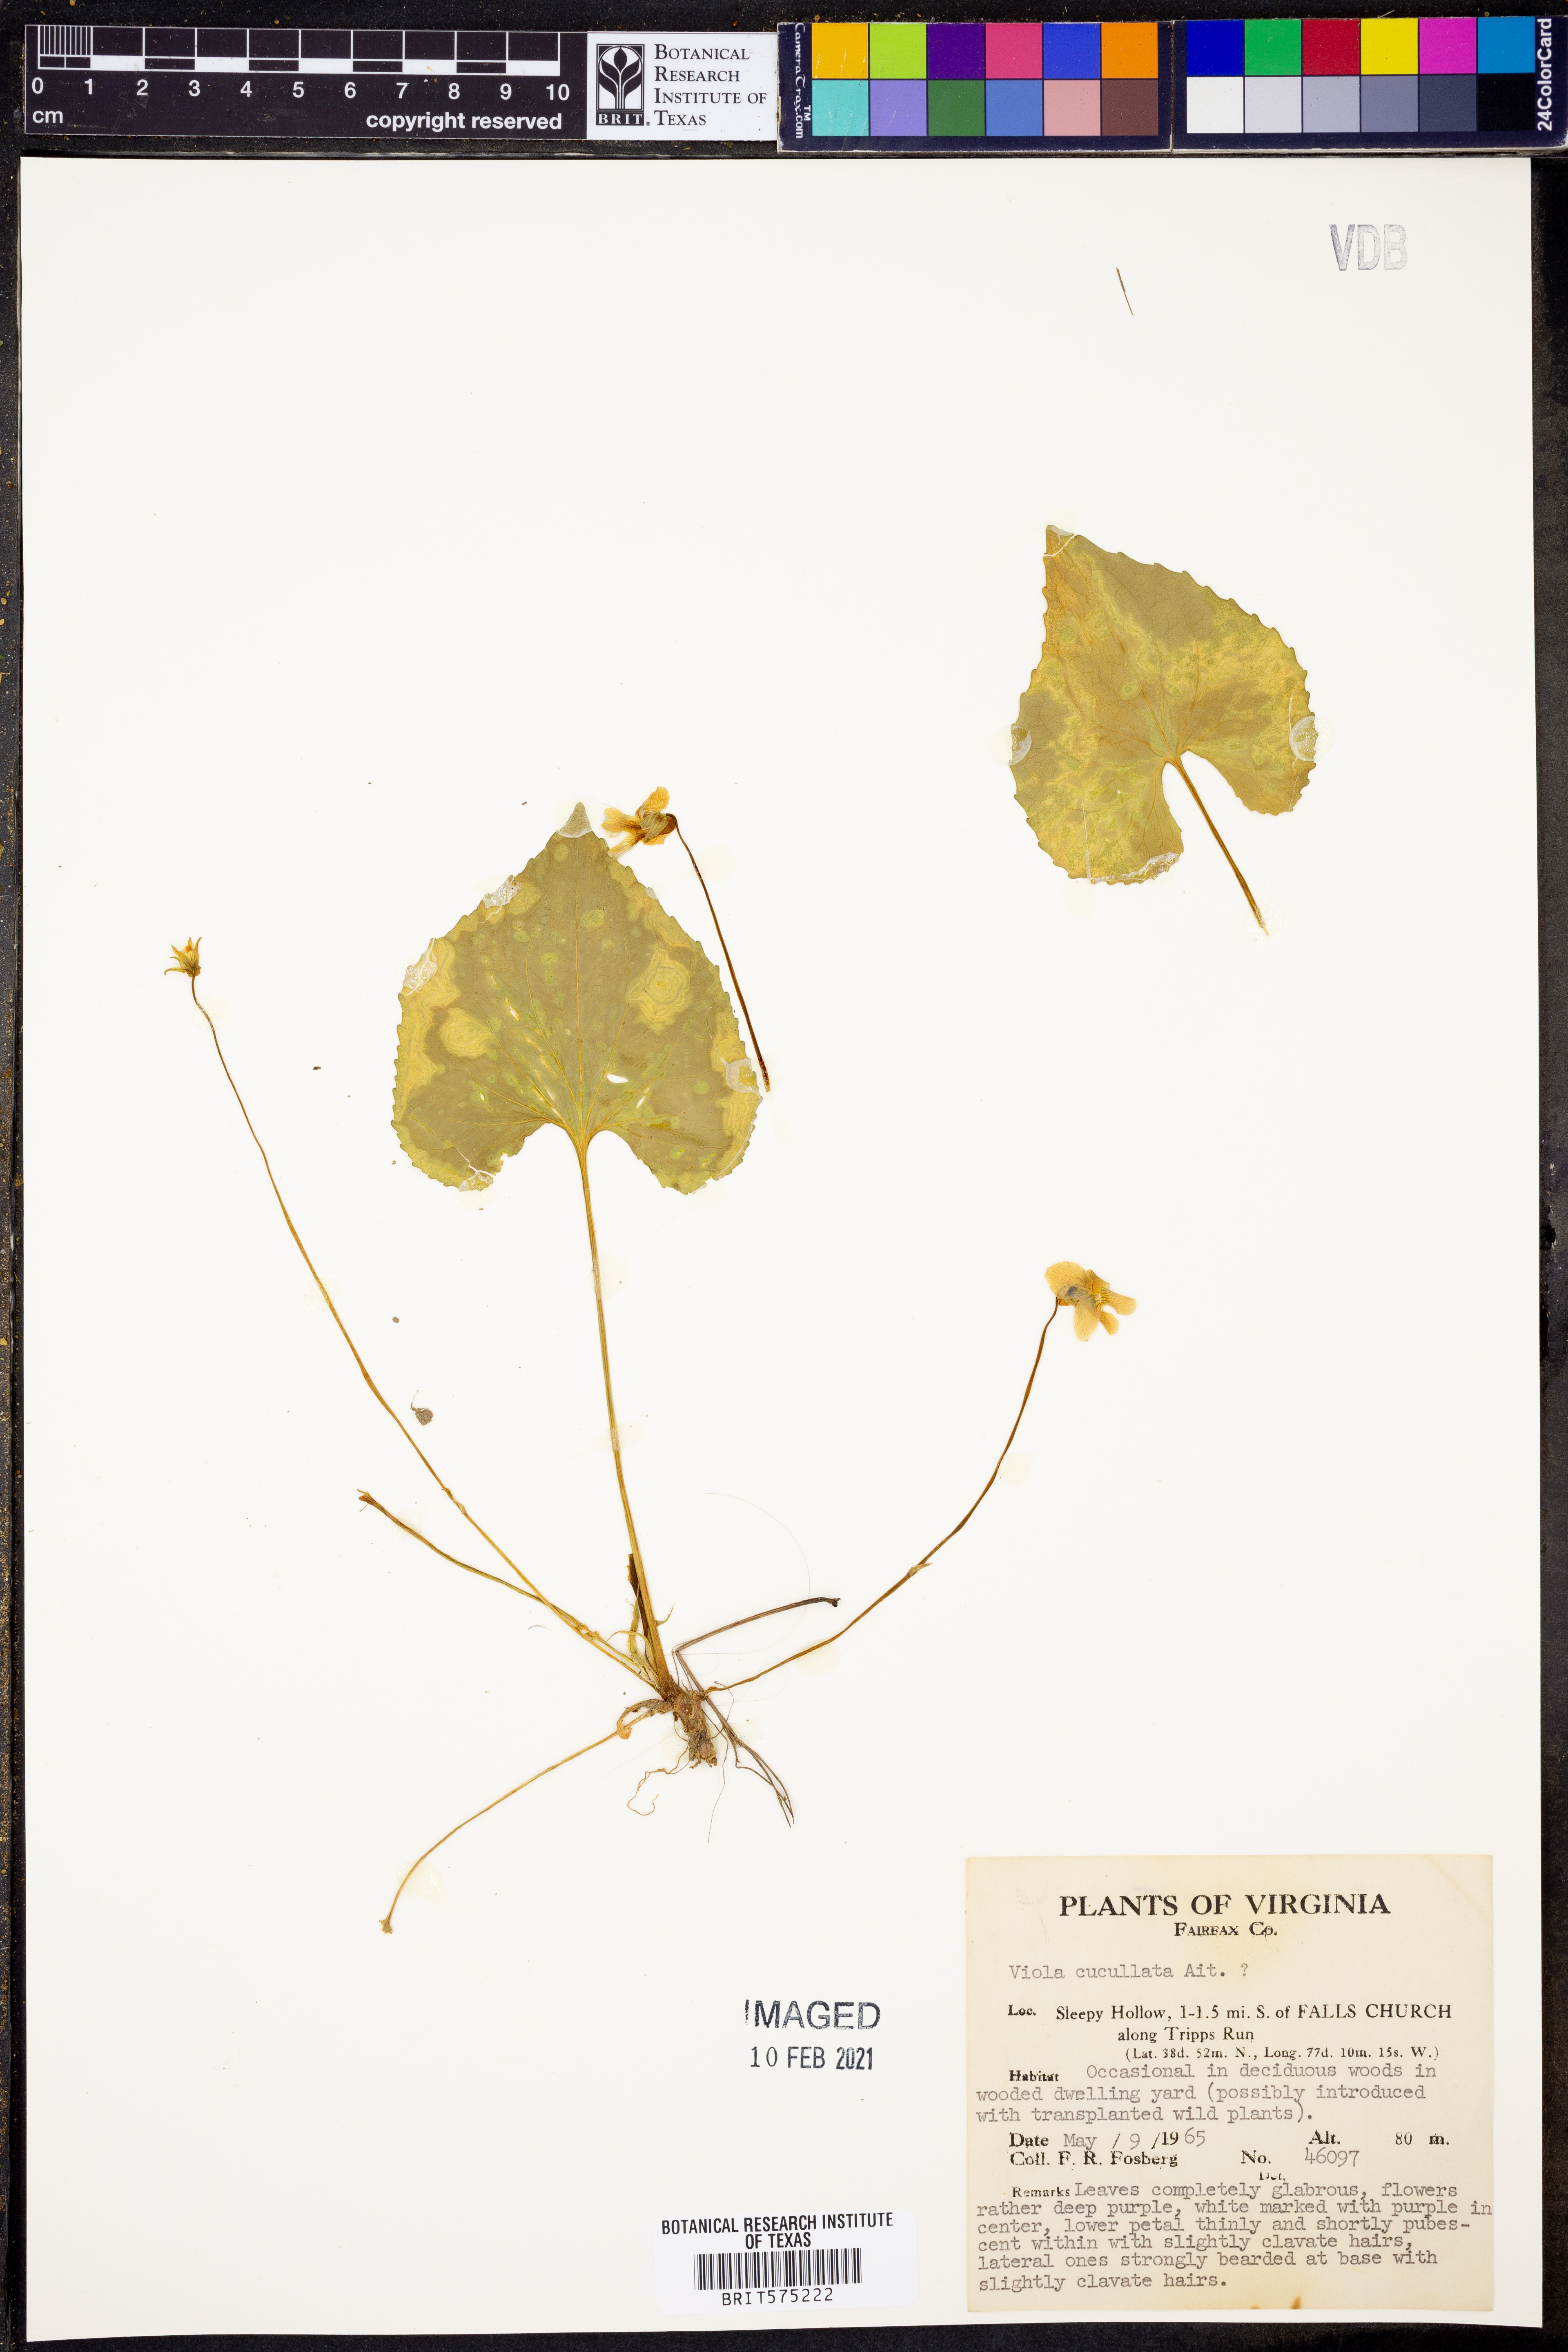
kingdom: Plantae
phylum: Tracheophyta
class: Magnoliopsida
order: Malpighiales
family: Violaceae
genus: Viola
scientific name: Viola cucullata
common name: Marsh blue violet
